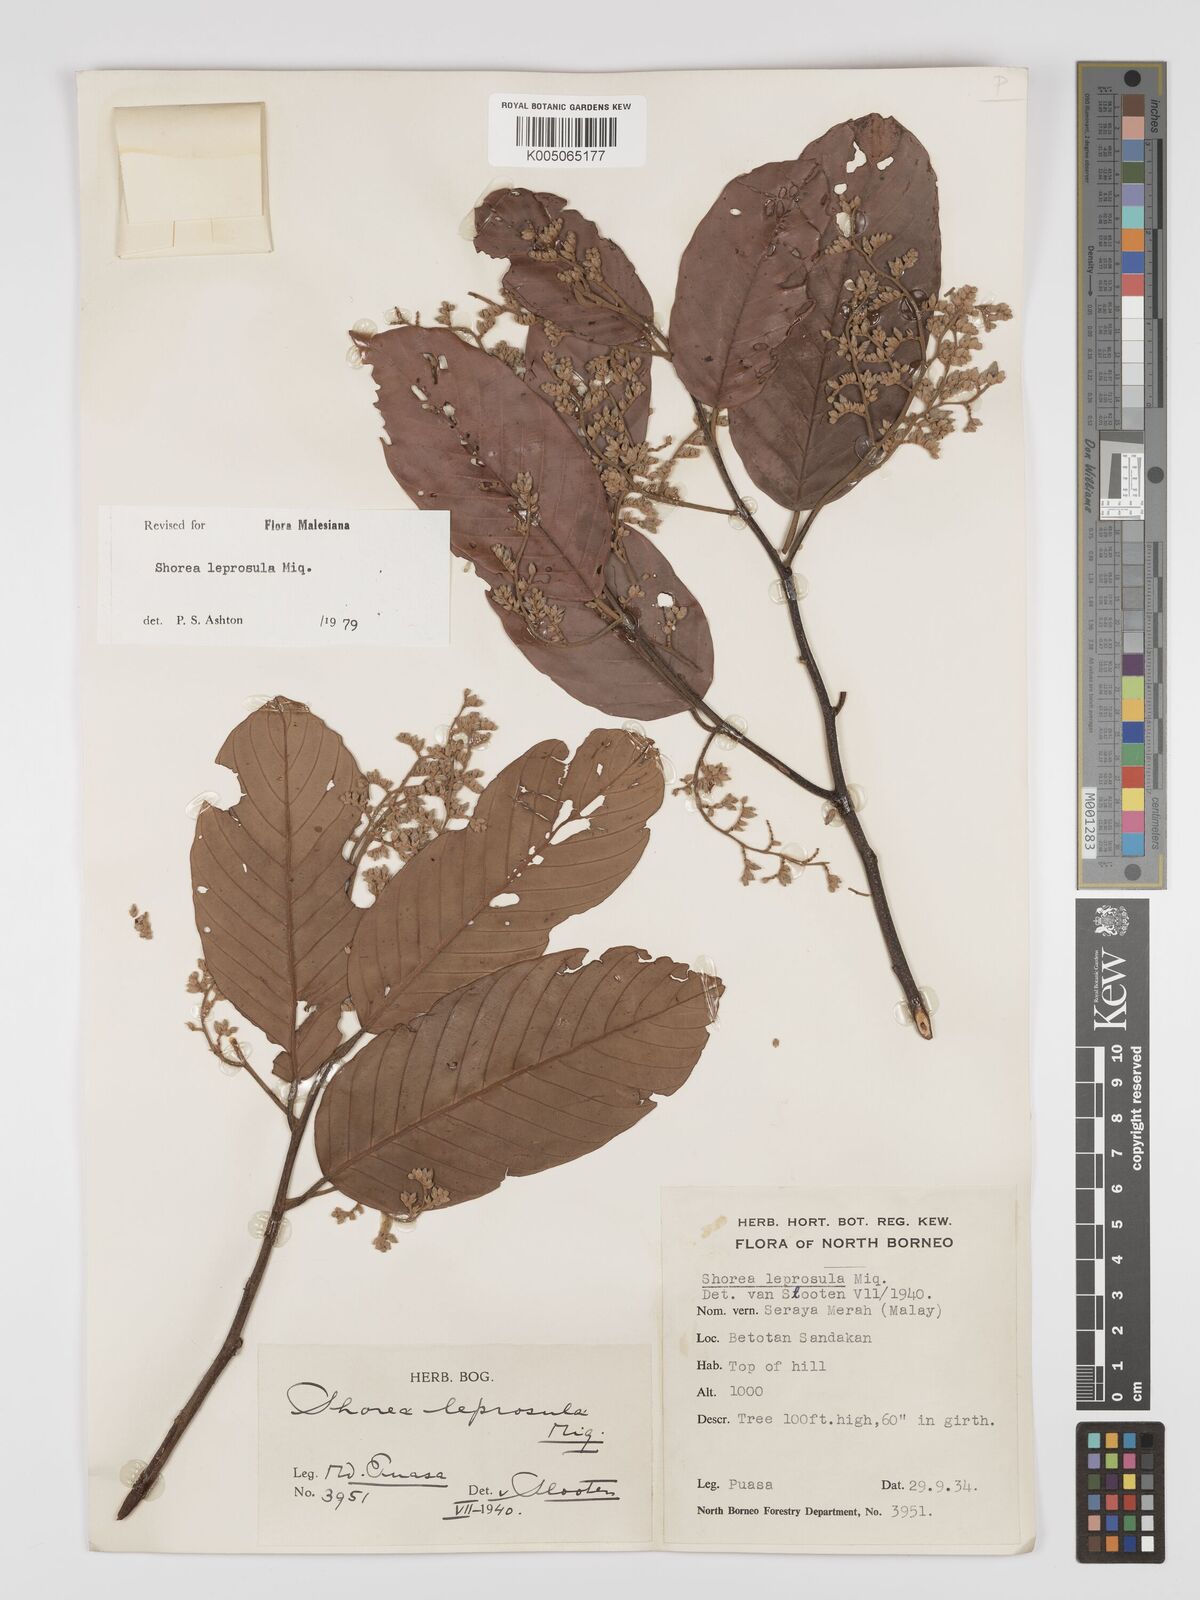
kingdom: Plantae
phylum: Tracheophyta
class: Magnoliopsida
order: Malvales
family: Dipterocarpaceae
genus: Shorea
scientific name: Shorea leprosula
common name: Light red meranti
